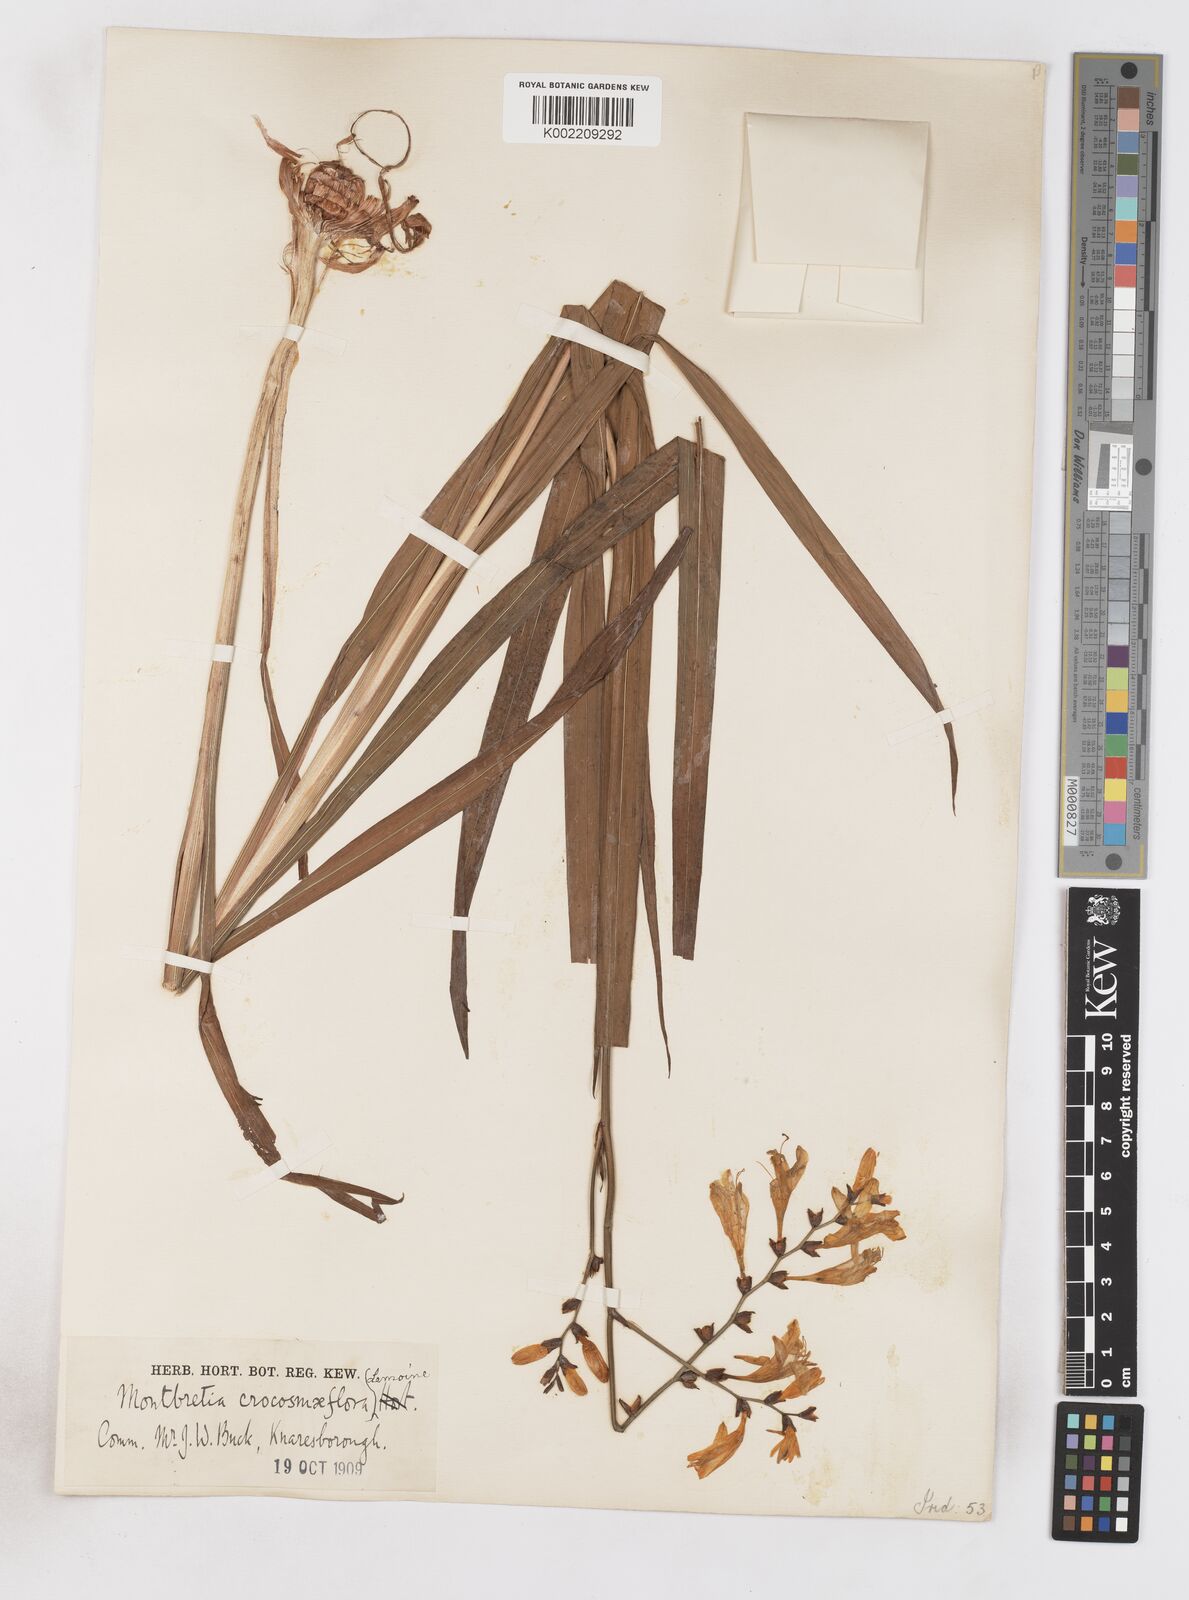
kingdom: Plantae
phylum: Tracheophyta
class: Liliopsida
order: Asparagales
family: Iridaceae
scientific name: Iridaceae
